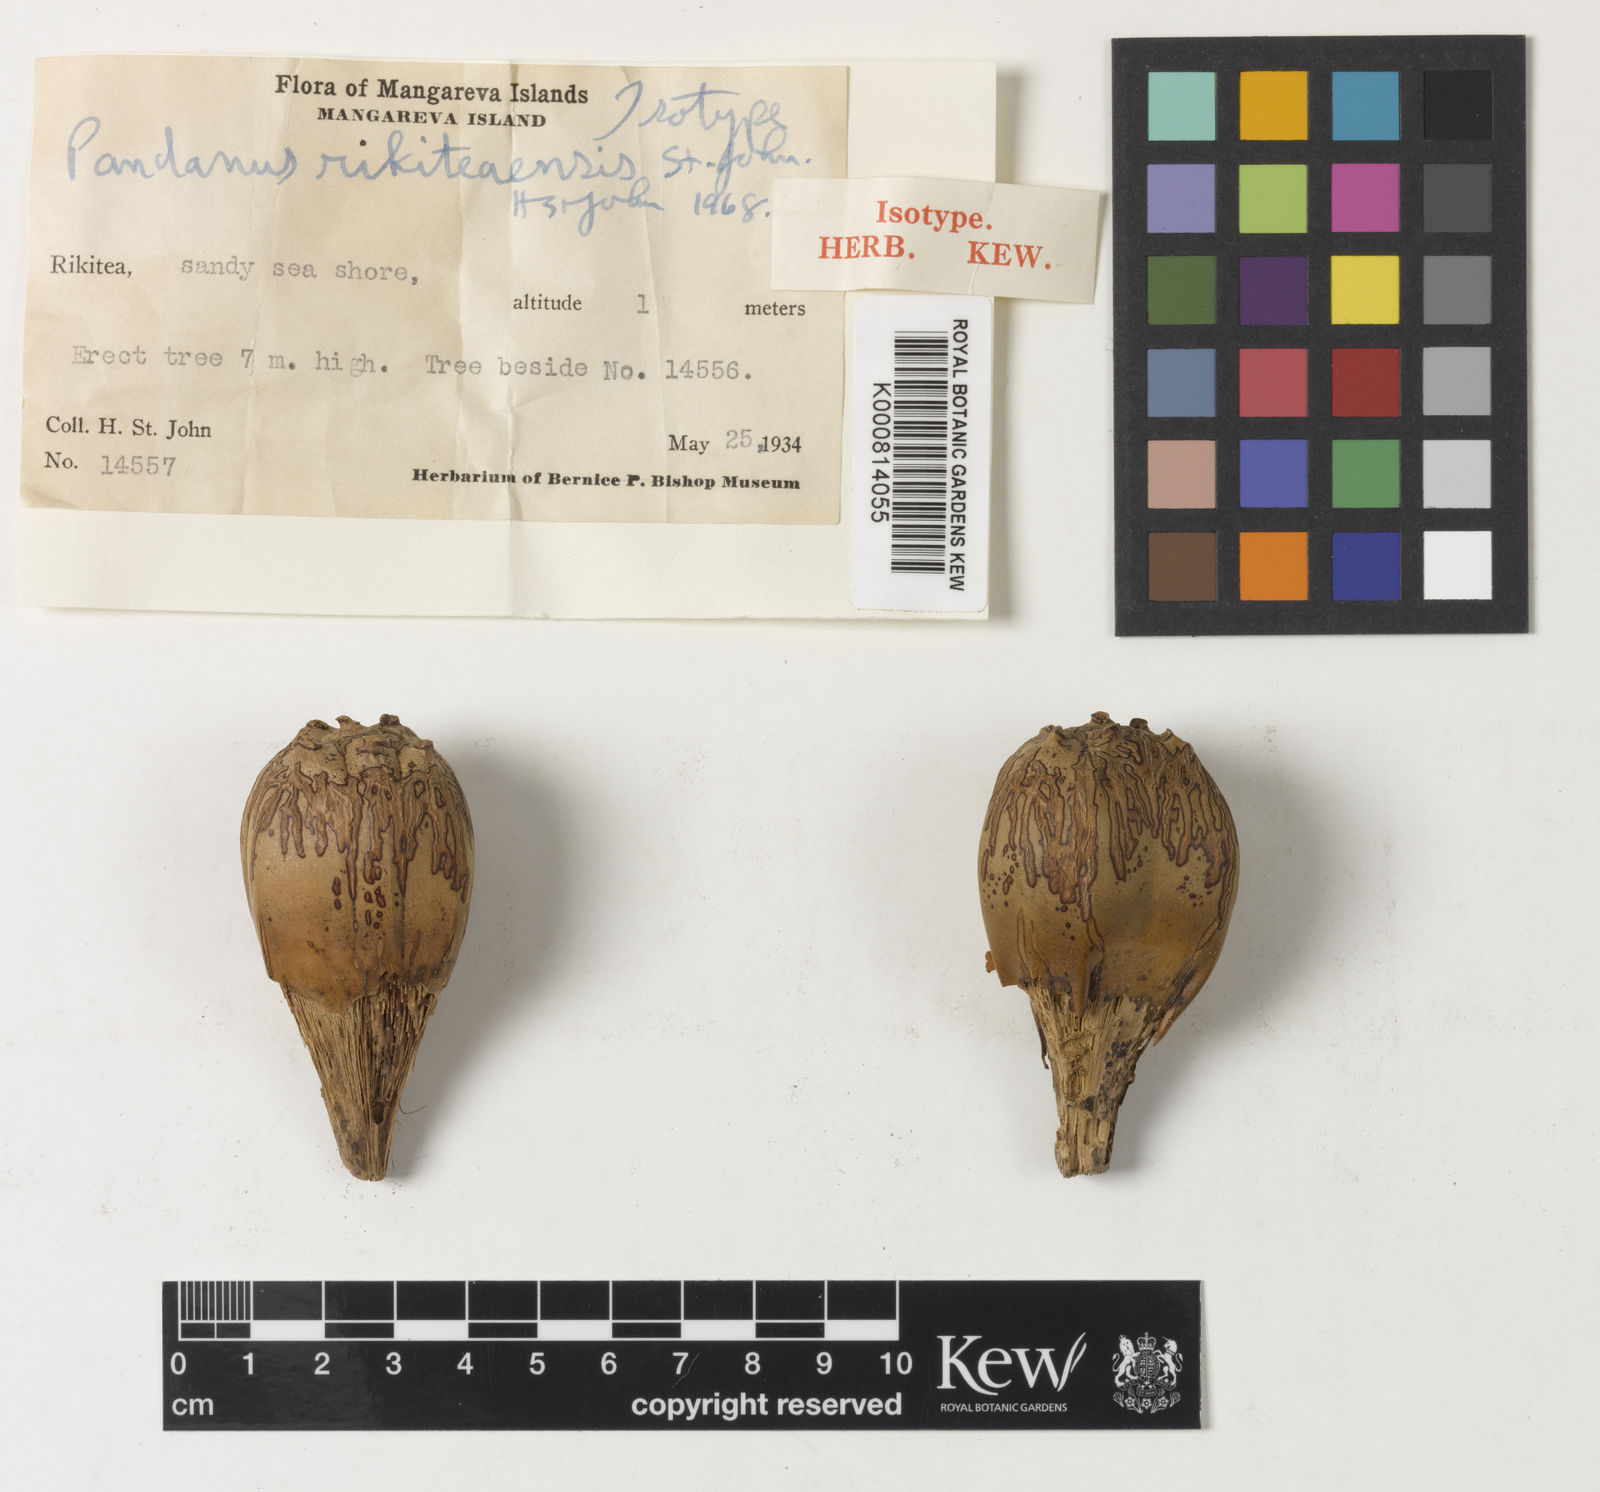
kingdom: Plantae
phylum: Tracheophyta
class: Liliopsida
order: Pandanales
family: Pandanaceae
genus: Pandanus
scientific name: Pandanus tectorius
